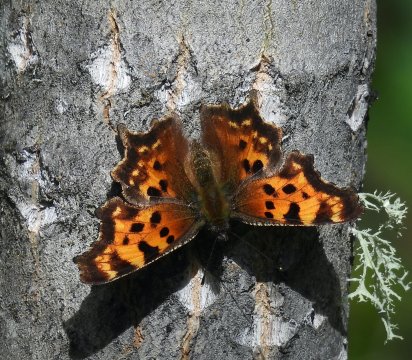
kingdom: Animalia
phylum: Arthropoda
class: Insecta
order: Lepidoptera
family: Nymphalidae
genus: Polygonia
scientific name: Polygonia faunus
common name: Green Comma
